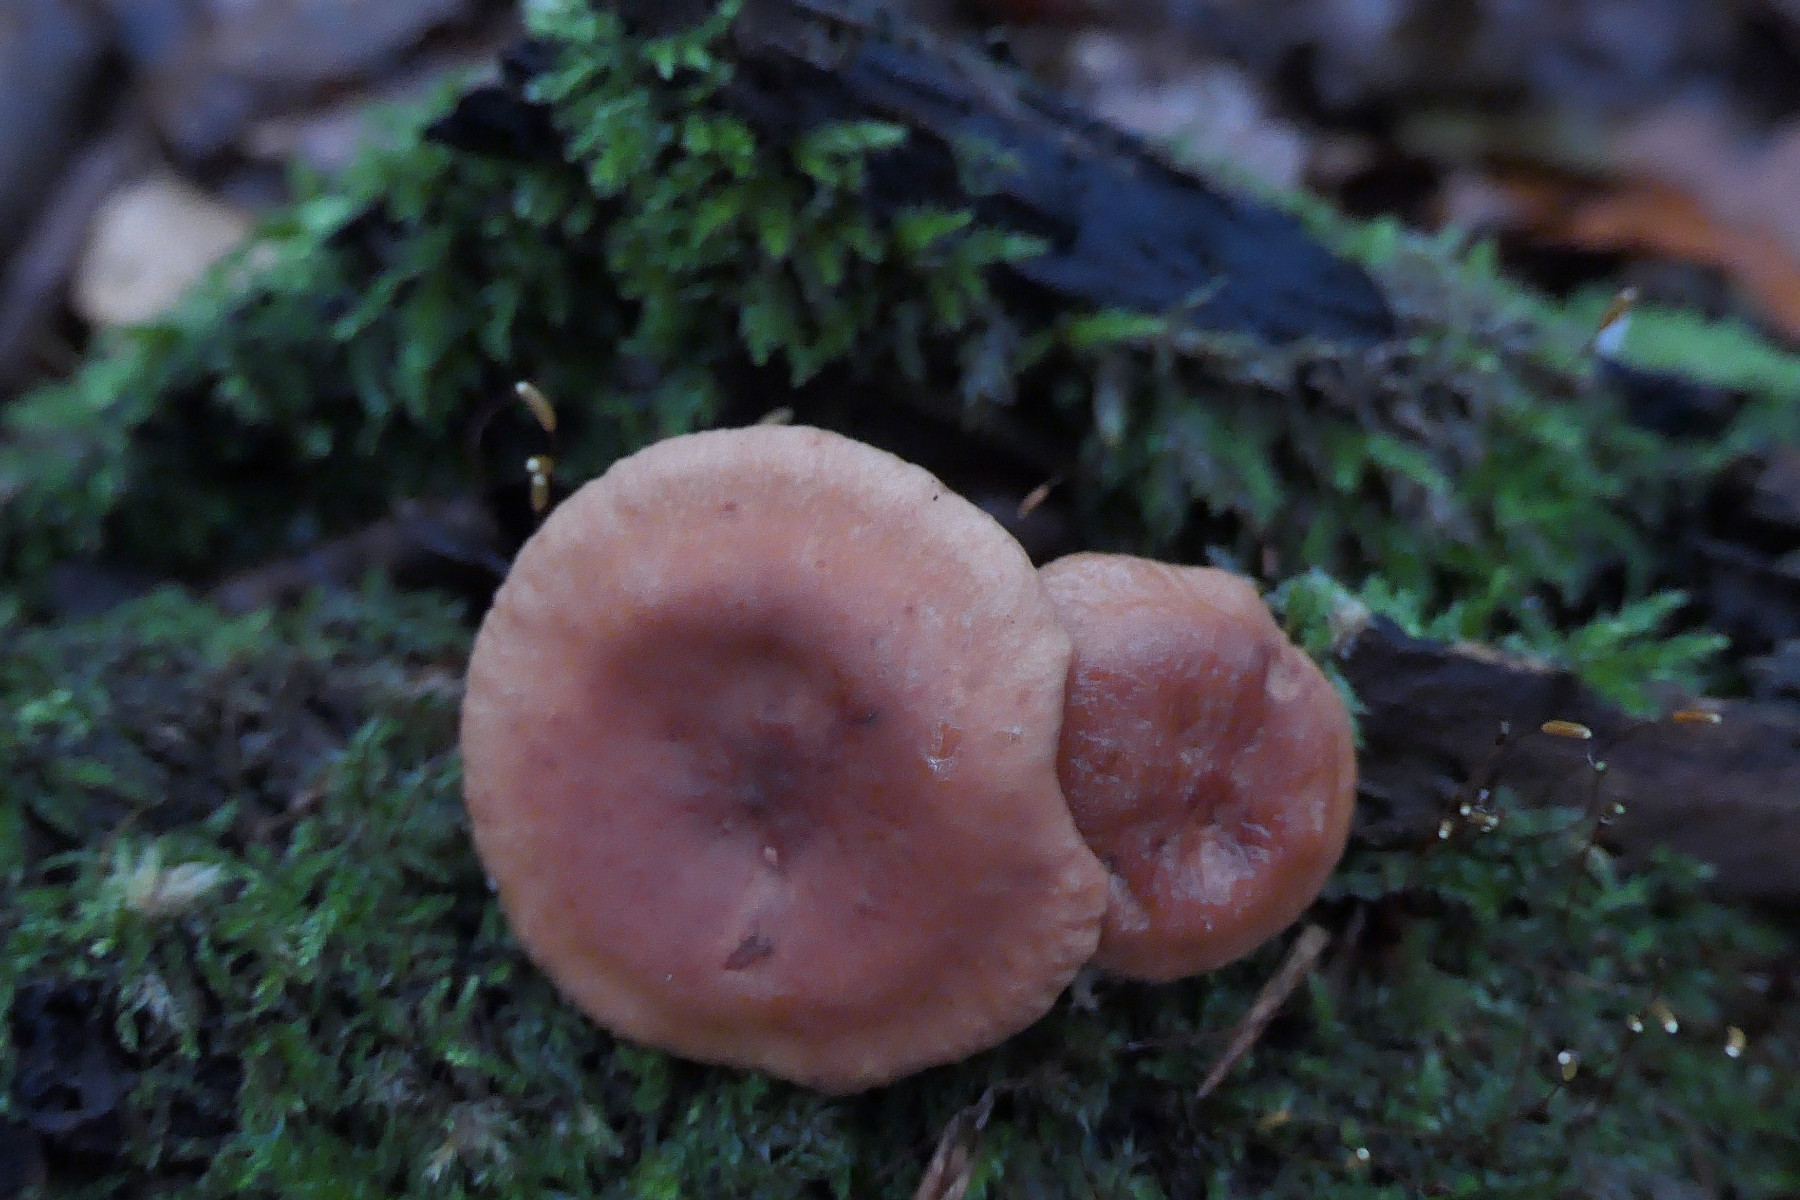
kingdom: Fungi
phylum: Basidiomycota
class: Agaricomycetes
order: Russulales
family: Russulaceae
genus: Lactarius
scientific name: Lactarius serifluus
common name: tæge-mælkehat
